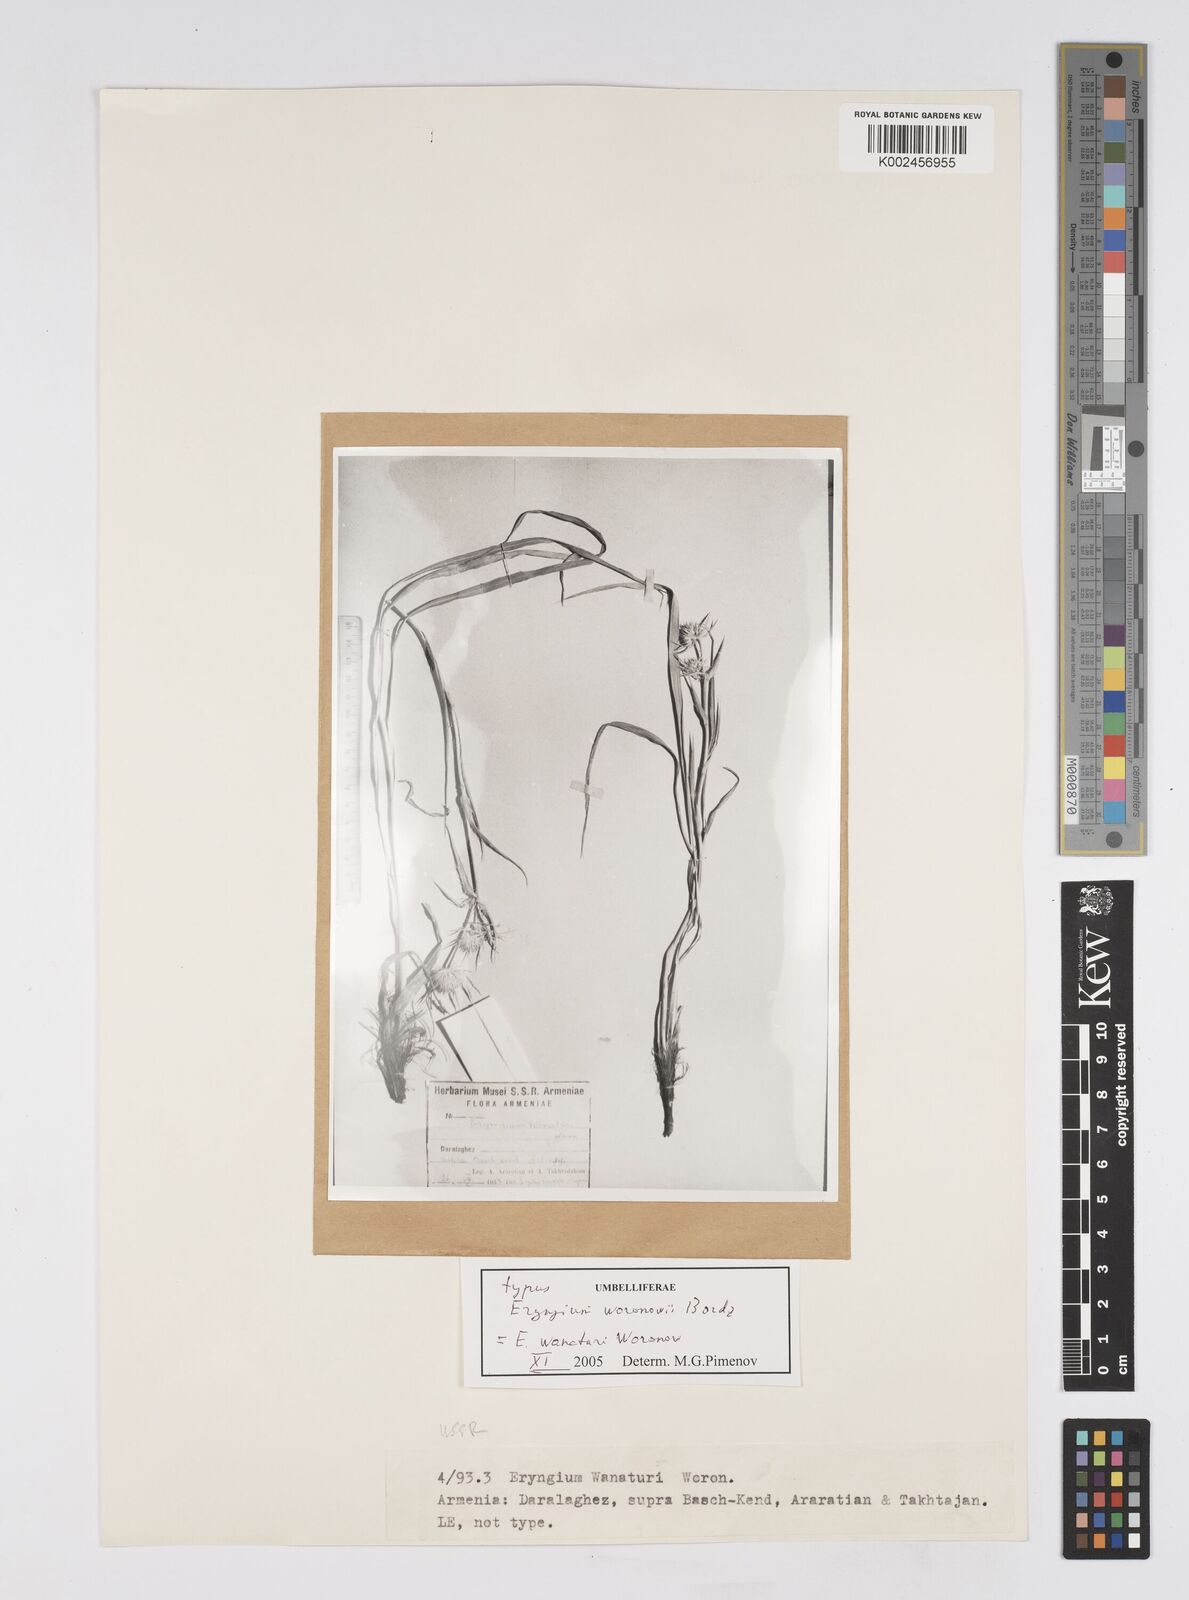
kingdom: Plantae
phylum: Tracheophyta
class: Magnoliopsida
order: Apiales
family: Apiaceae
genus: Eryngium
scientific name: Eryngium wanaturi
